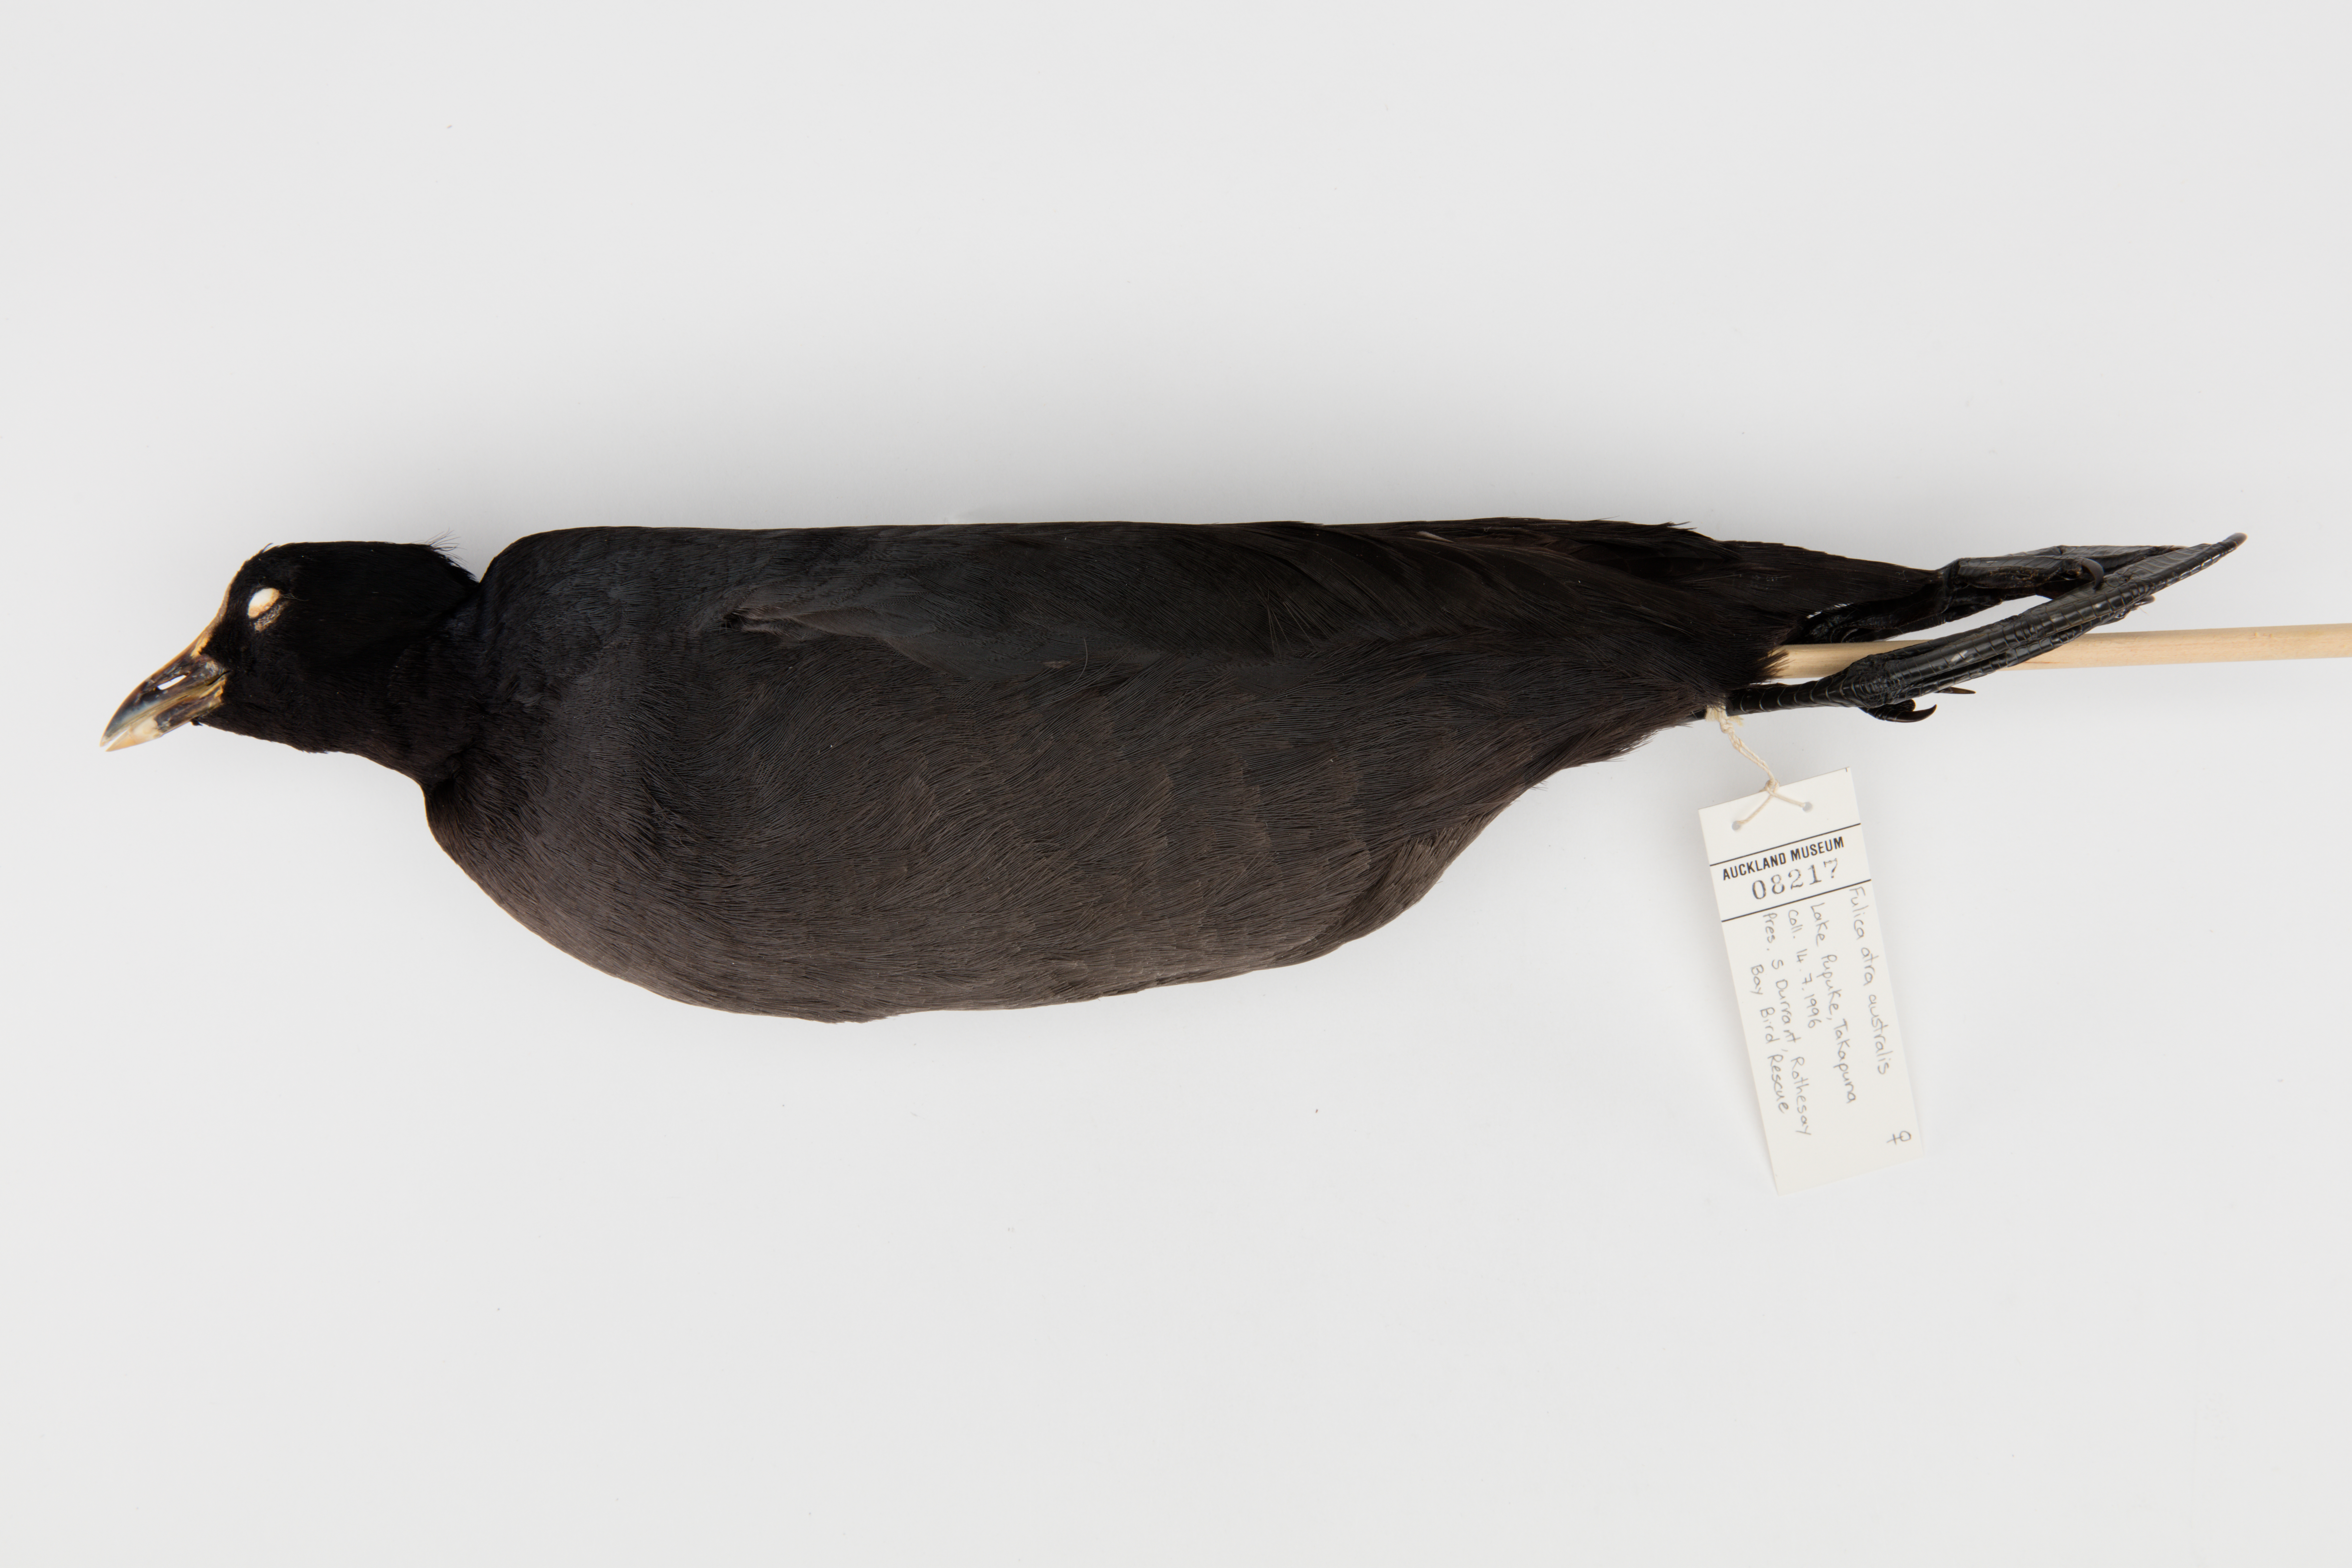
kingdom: Animalia
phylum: Chordata
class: Aves
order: Gruiformes
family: Rallidae
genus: Fulica
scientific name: Fulica atra
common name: Eurasian coot
